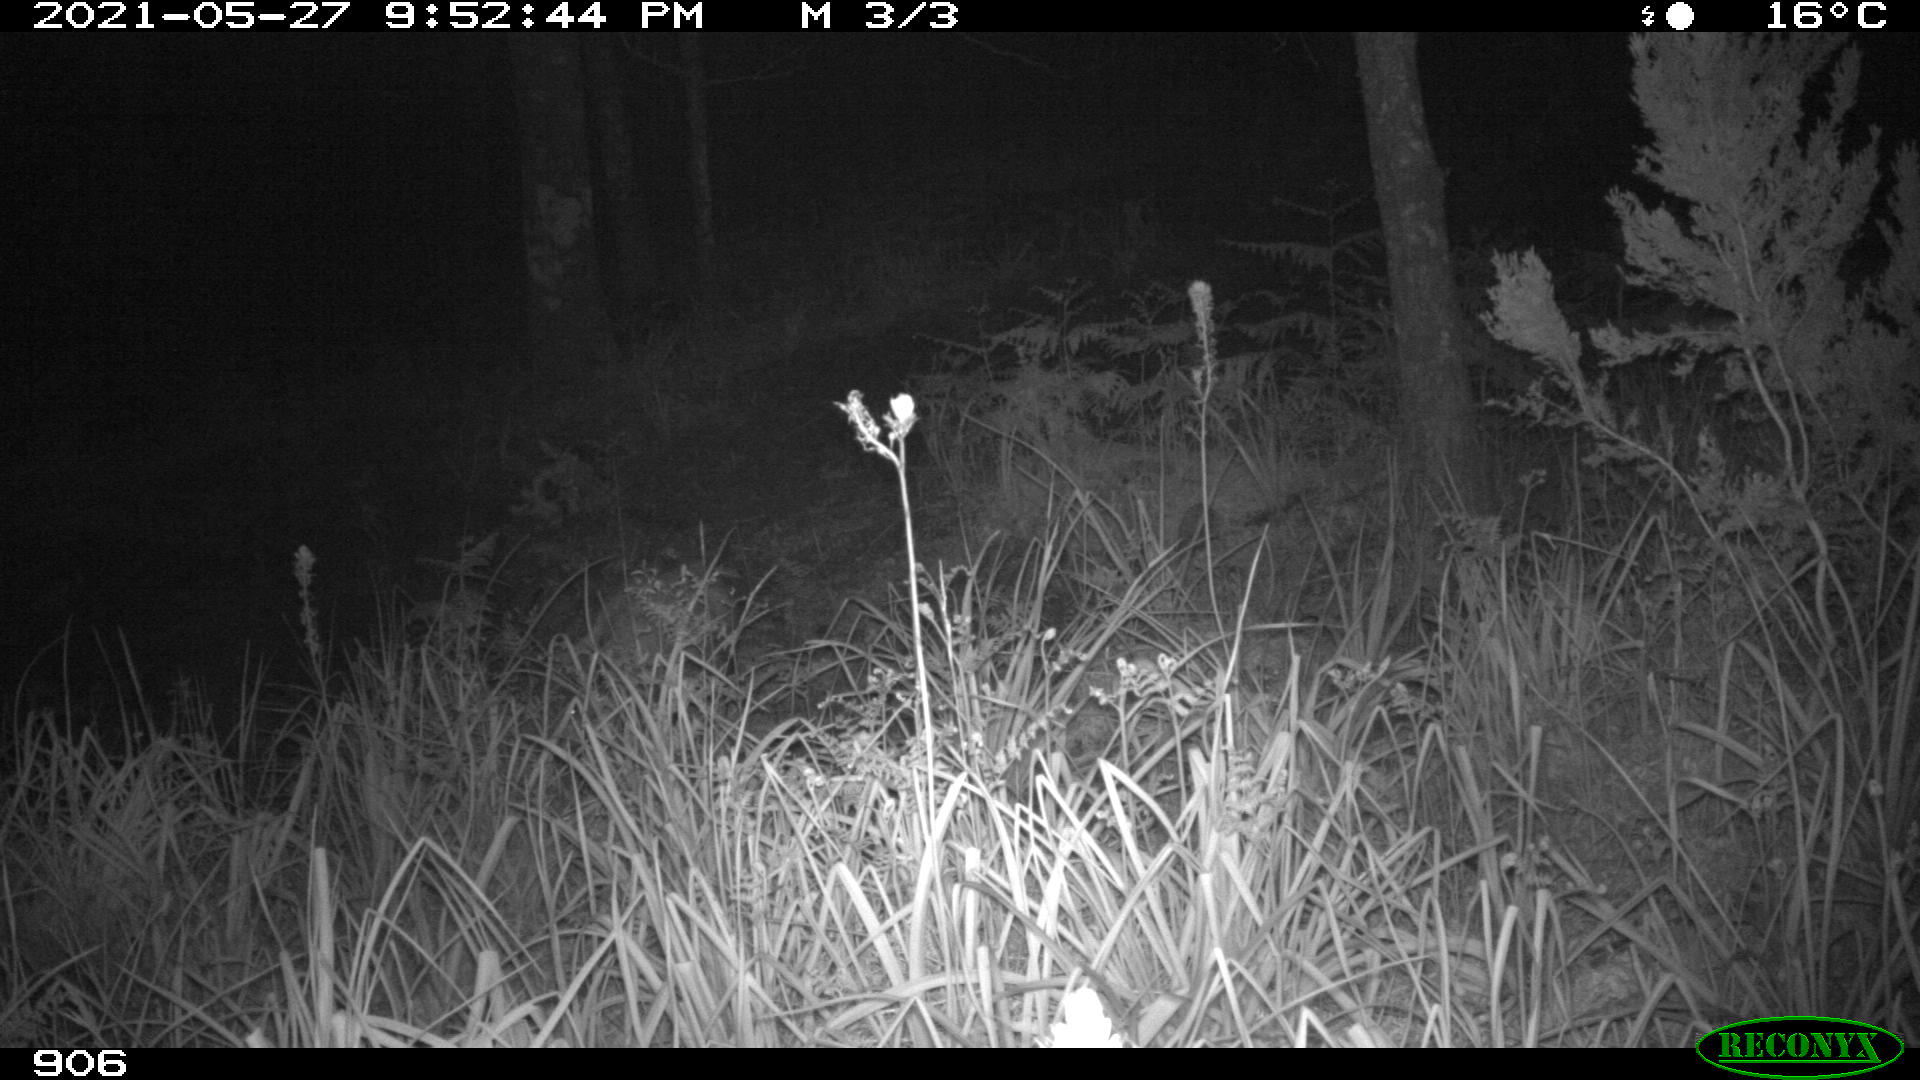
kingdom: Animalia
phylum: Chordata
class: Mammalia
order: Artiodactyla
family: Suidae
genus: Sus
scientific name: Sus scrofa
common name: Wild boar
